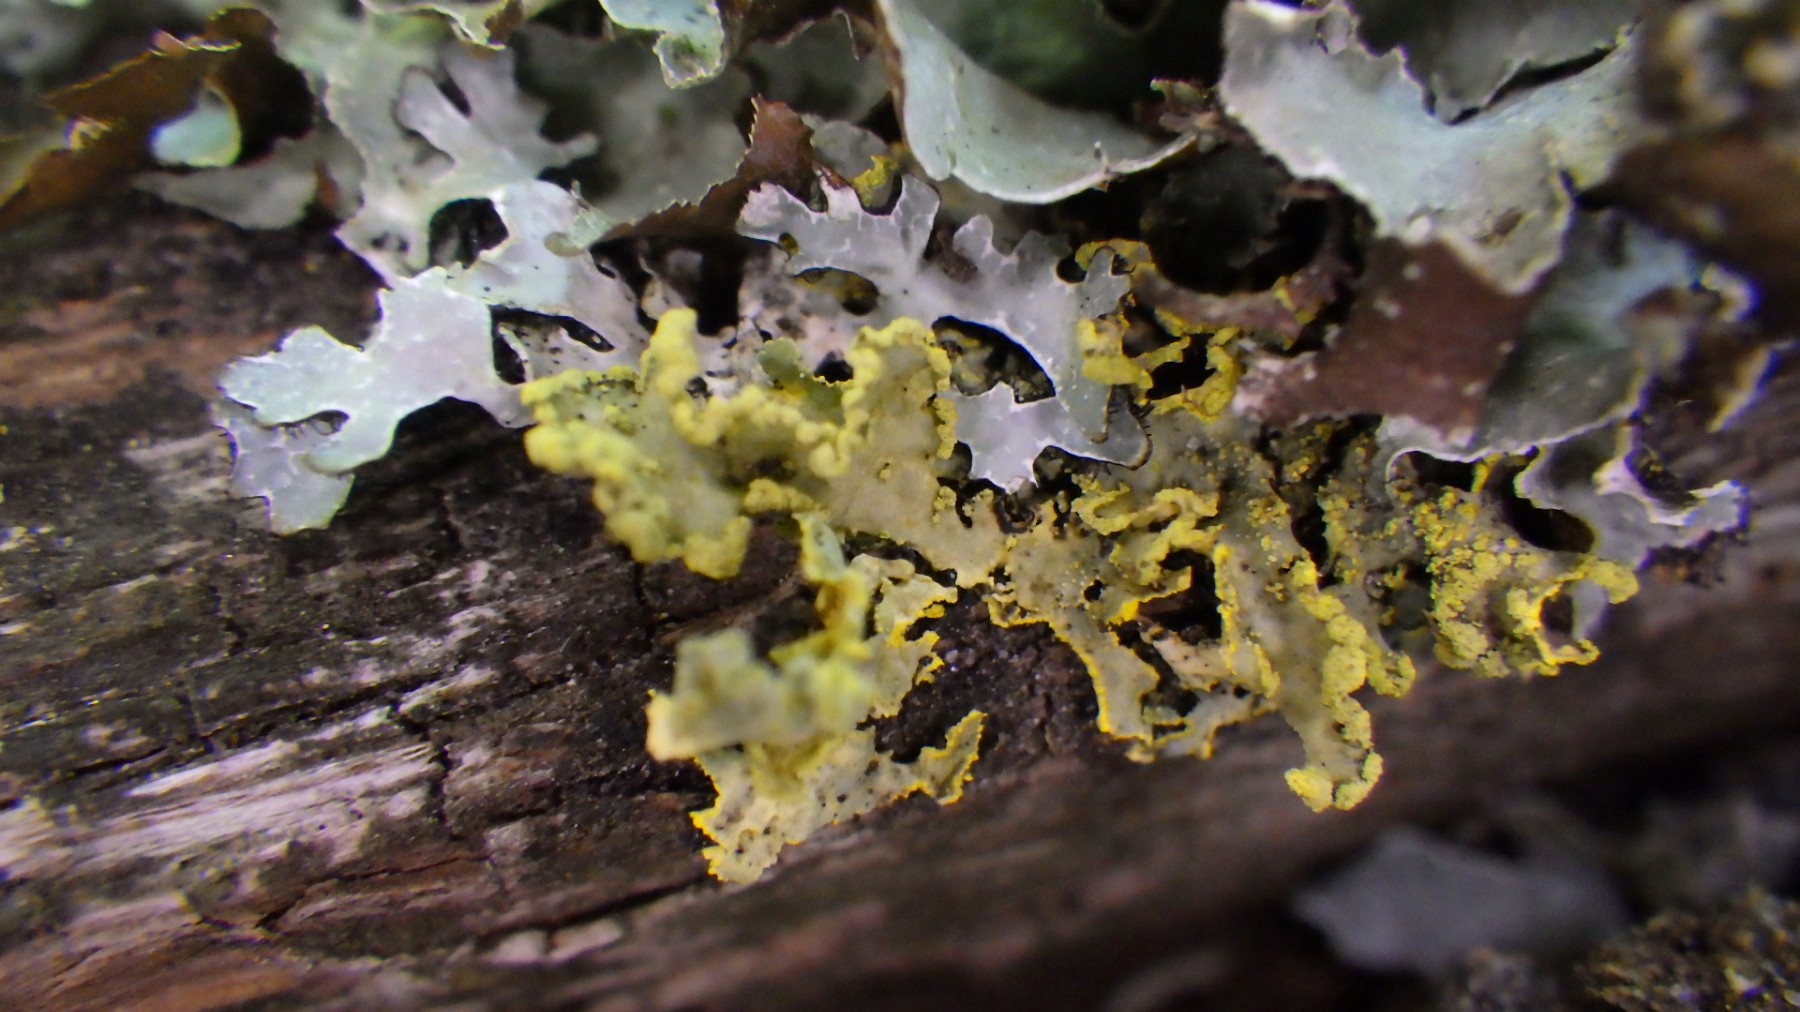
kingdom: Fungi
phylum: Ascomycota
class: Lecanoromycetes
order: Lecanorales
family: Parmeliaceae
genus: Vulpicida
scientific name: Vulpicida pinastri
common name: gul kruslav
